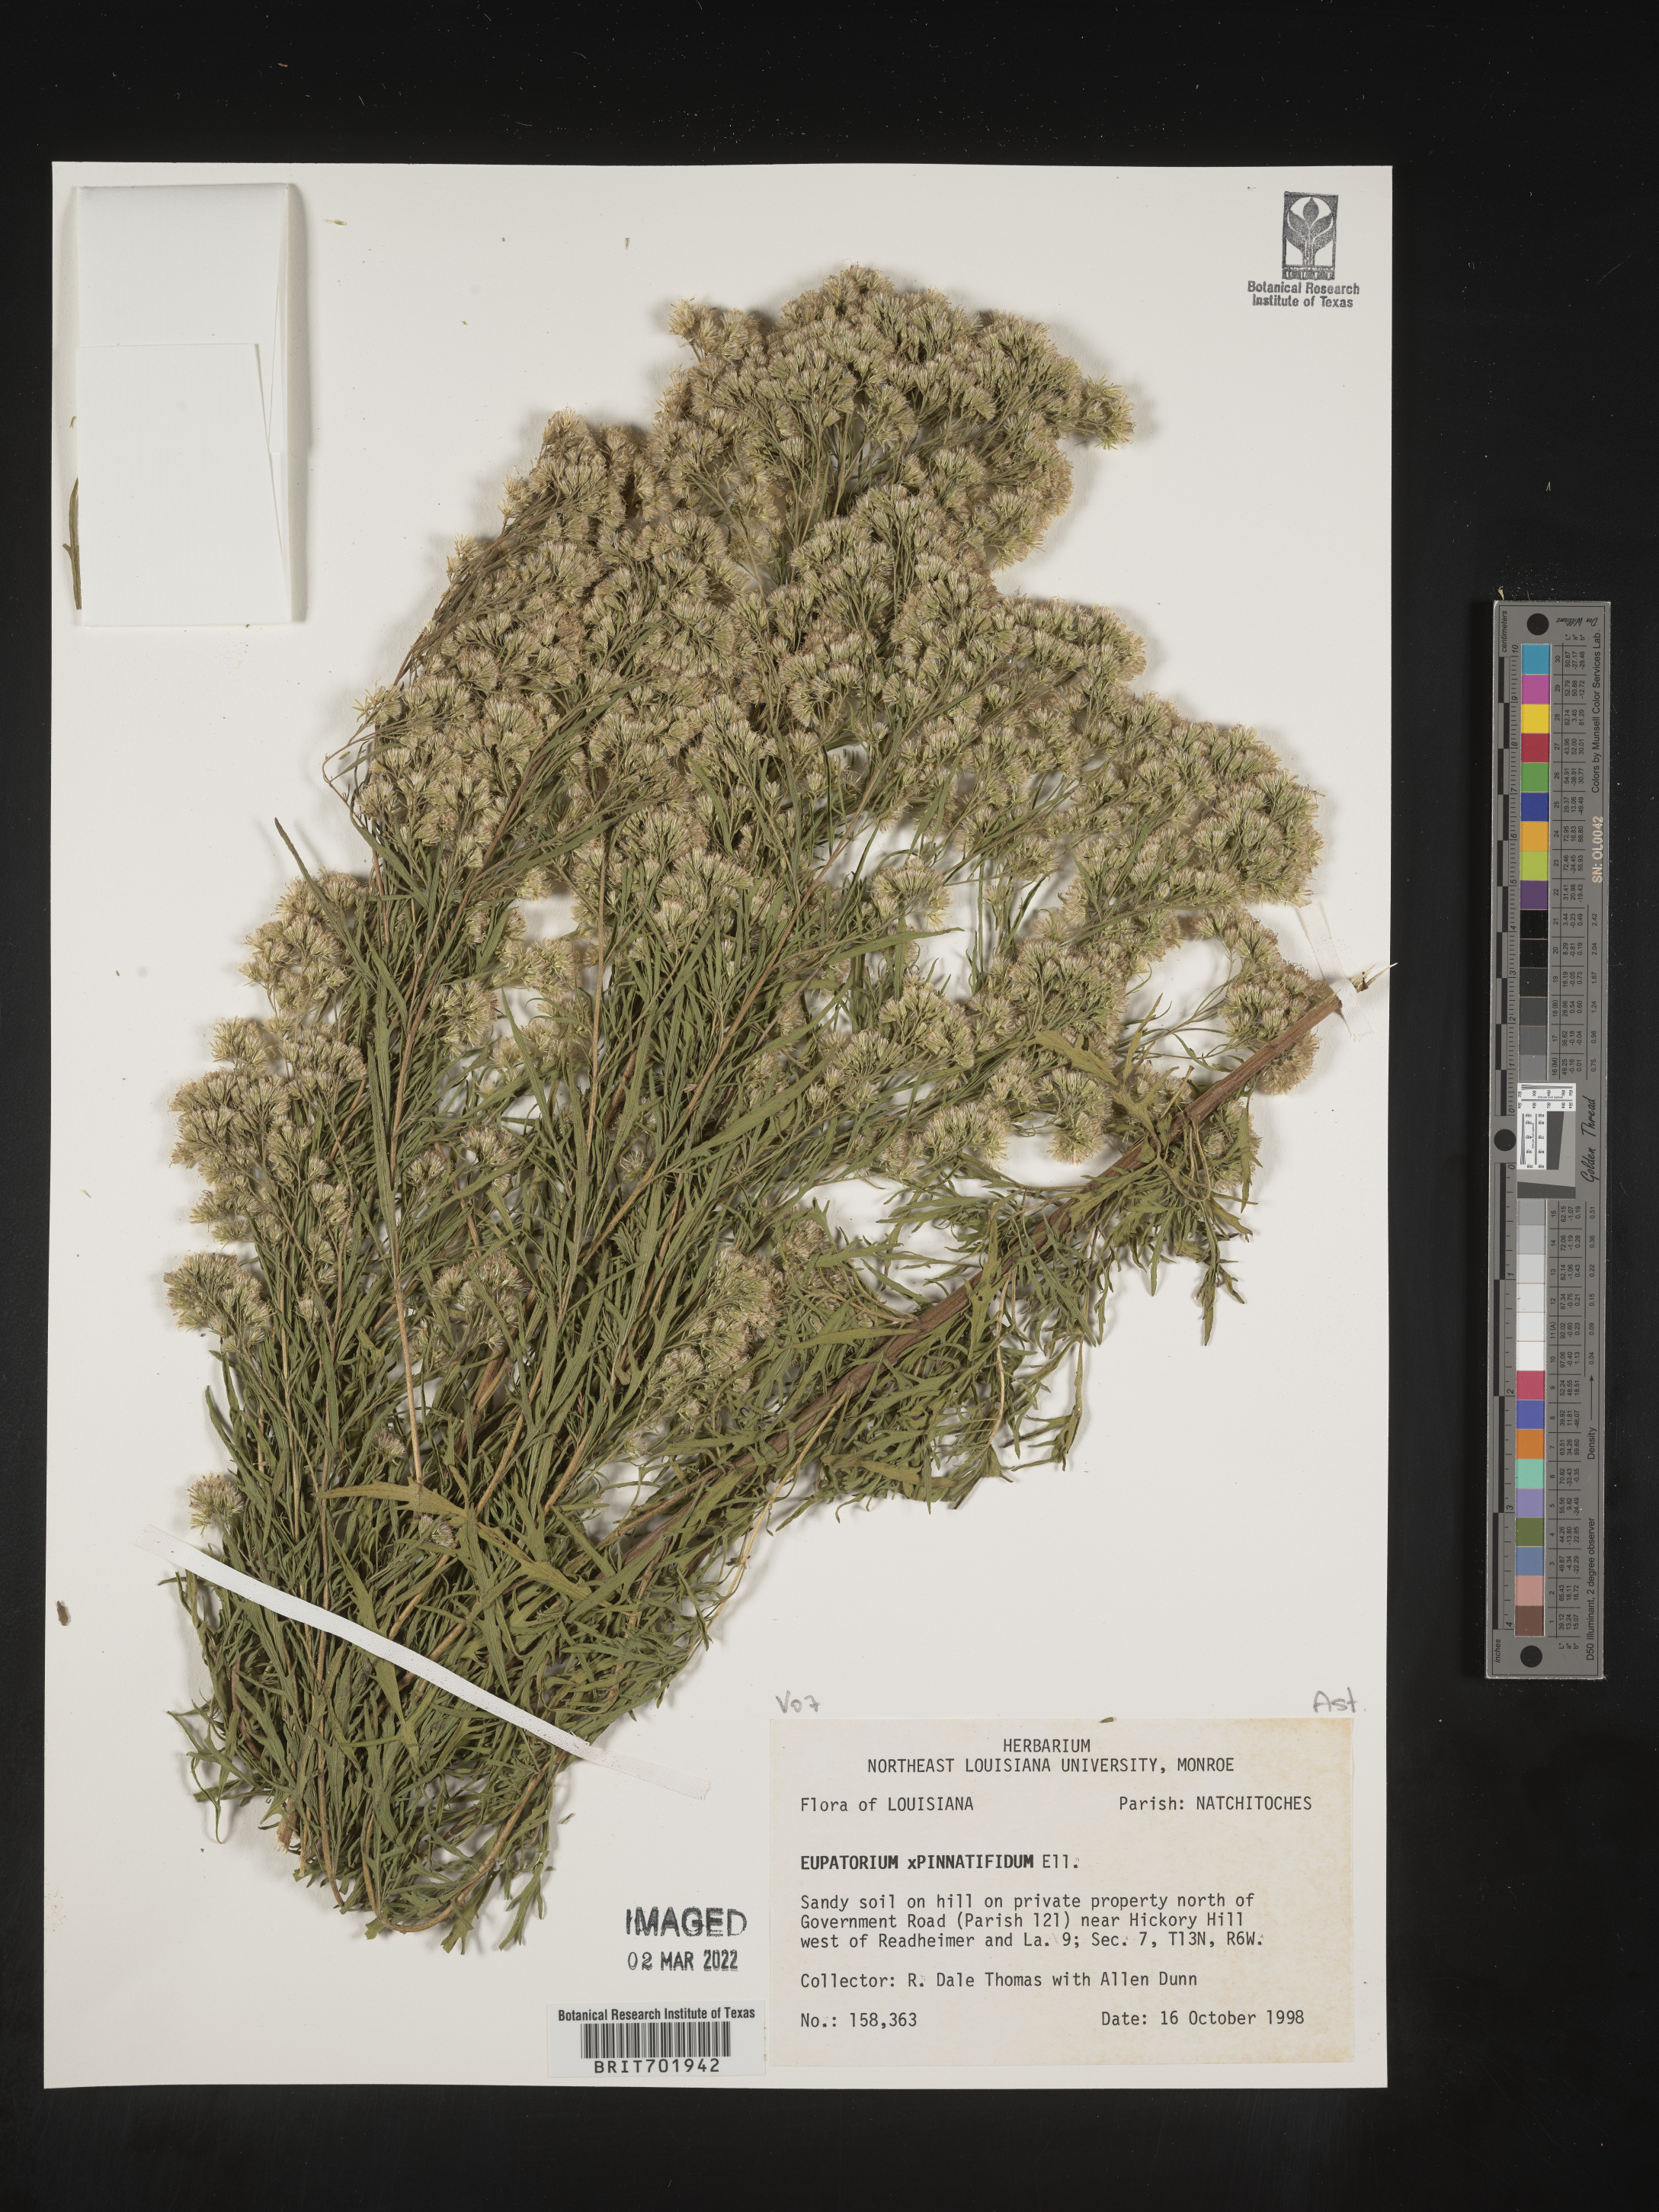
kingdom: Plantae
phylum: Tracheophyta
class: Magnoliopsida
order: Asterales
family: Asteraceae
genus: Eupatorium
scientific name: Eupatorium pinnatifidum
